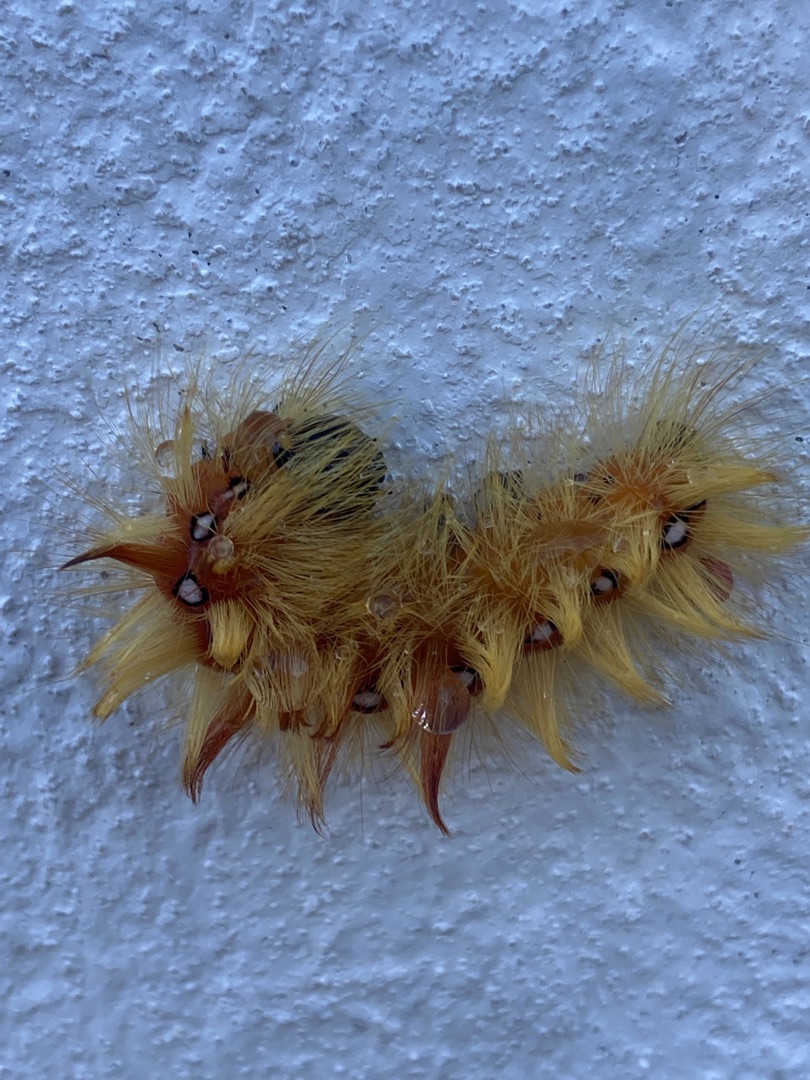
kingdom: Animalia
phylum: Arthropoda
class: Insecta
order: Lepidoptera
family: Noctuidae
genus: Acronicta
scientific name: Acronicta aceris
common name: Ahornugle
